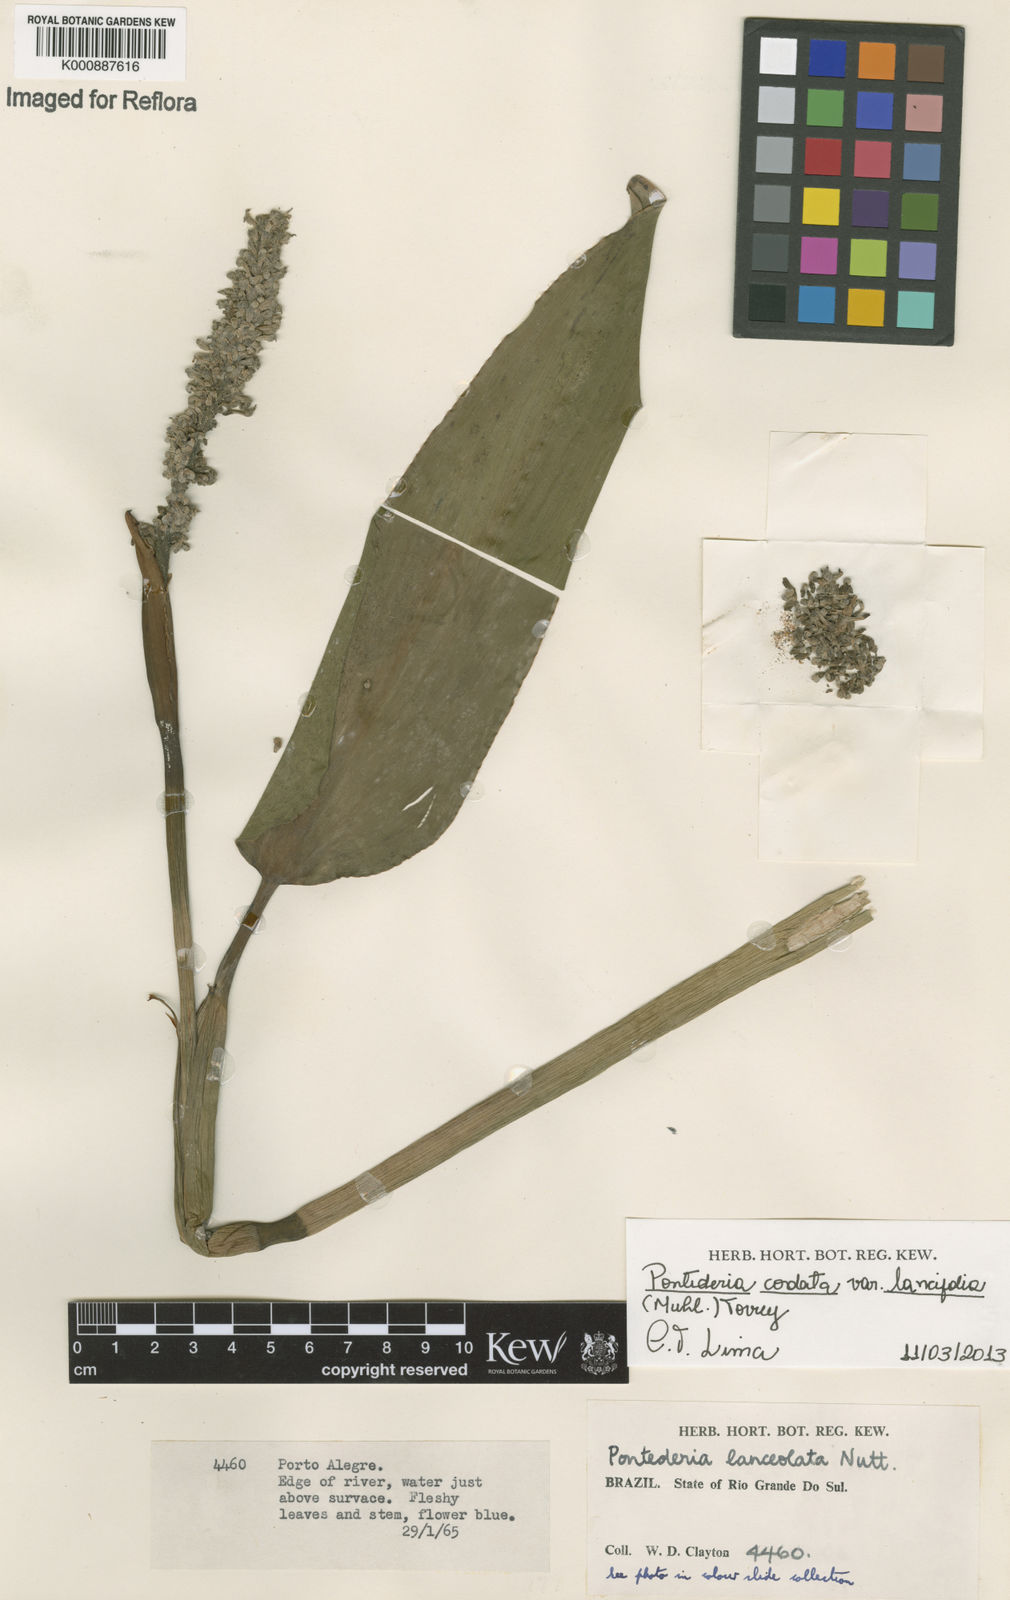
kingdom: Plantae
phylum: Tracheophyta
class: Liliopsida
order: Commelinales
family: Pontederiaceae
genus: Pontederia
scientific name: Pontederia cordata
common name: Pickerelweed
